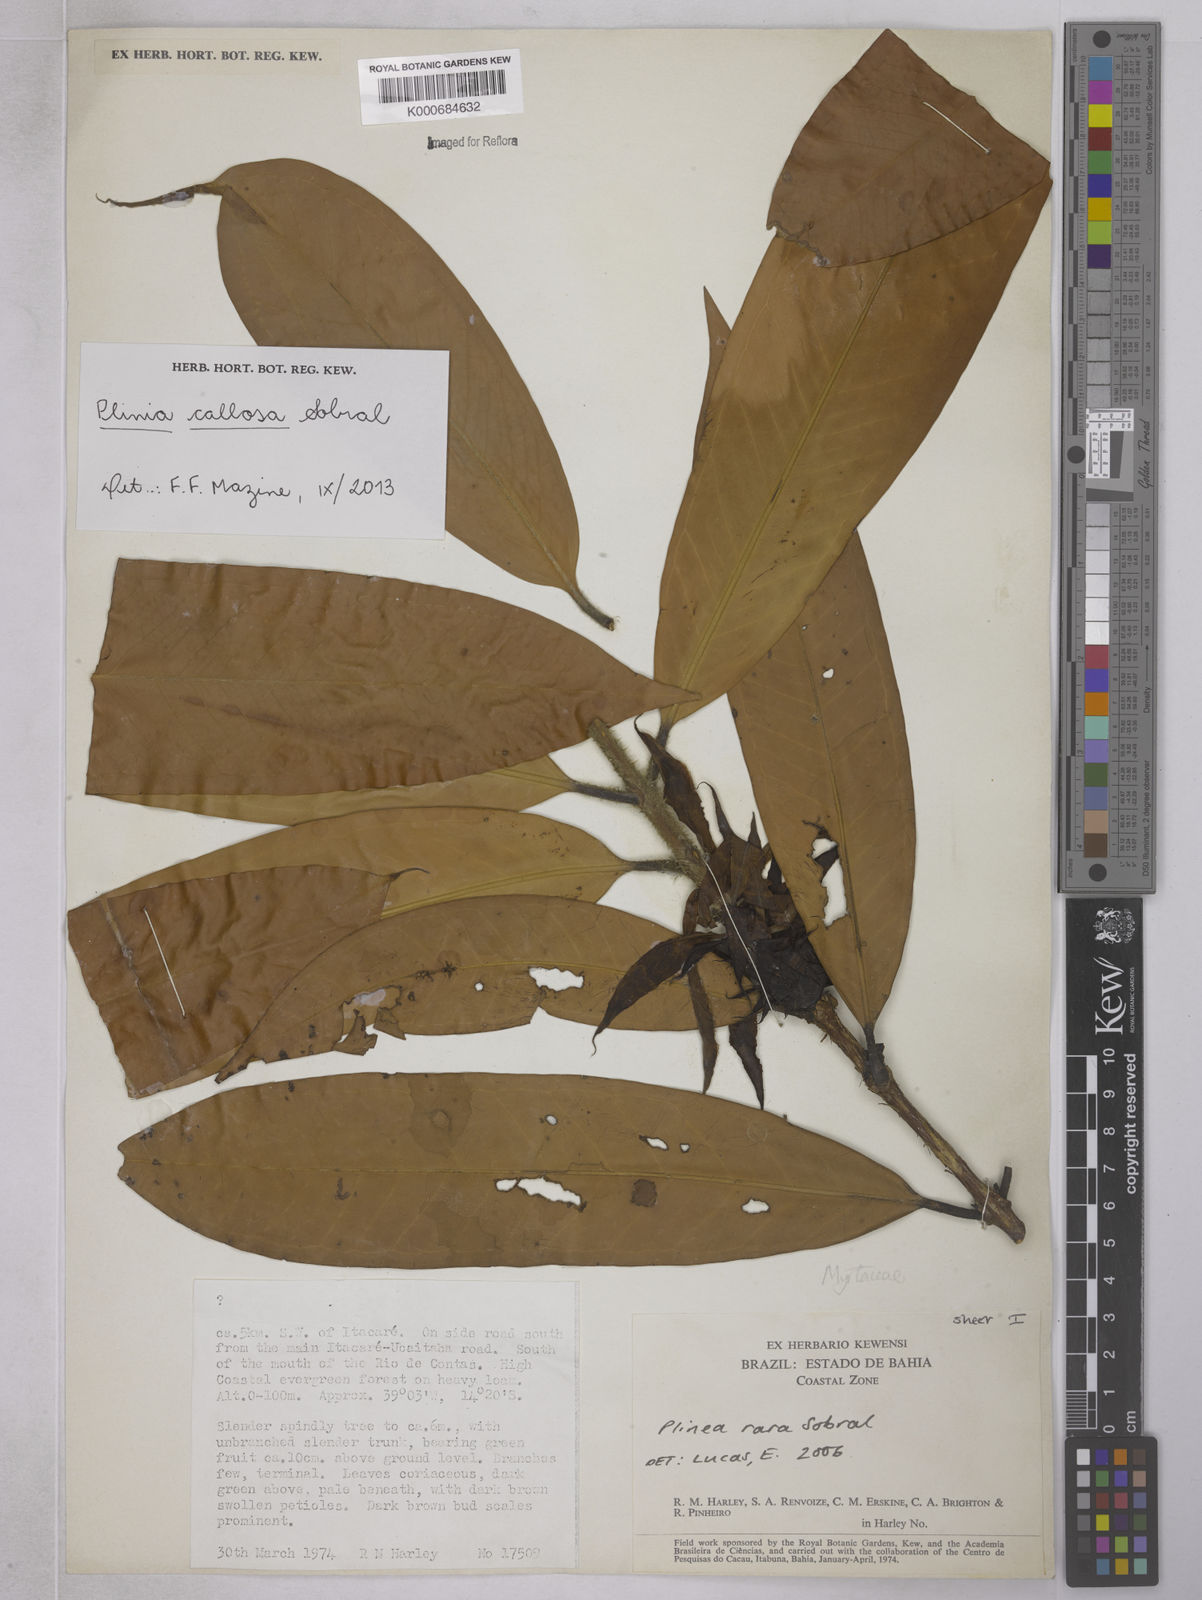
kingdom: Plantae
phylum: Tracheophyta
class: Magnoliopsida
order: Myrtales
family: Myrtaceae
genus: Plinia
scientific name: Plinia rara
